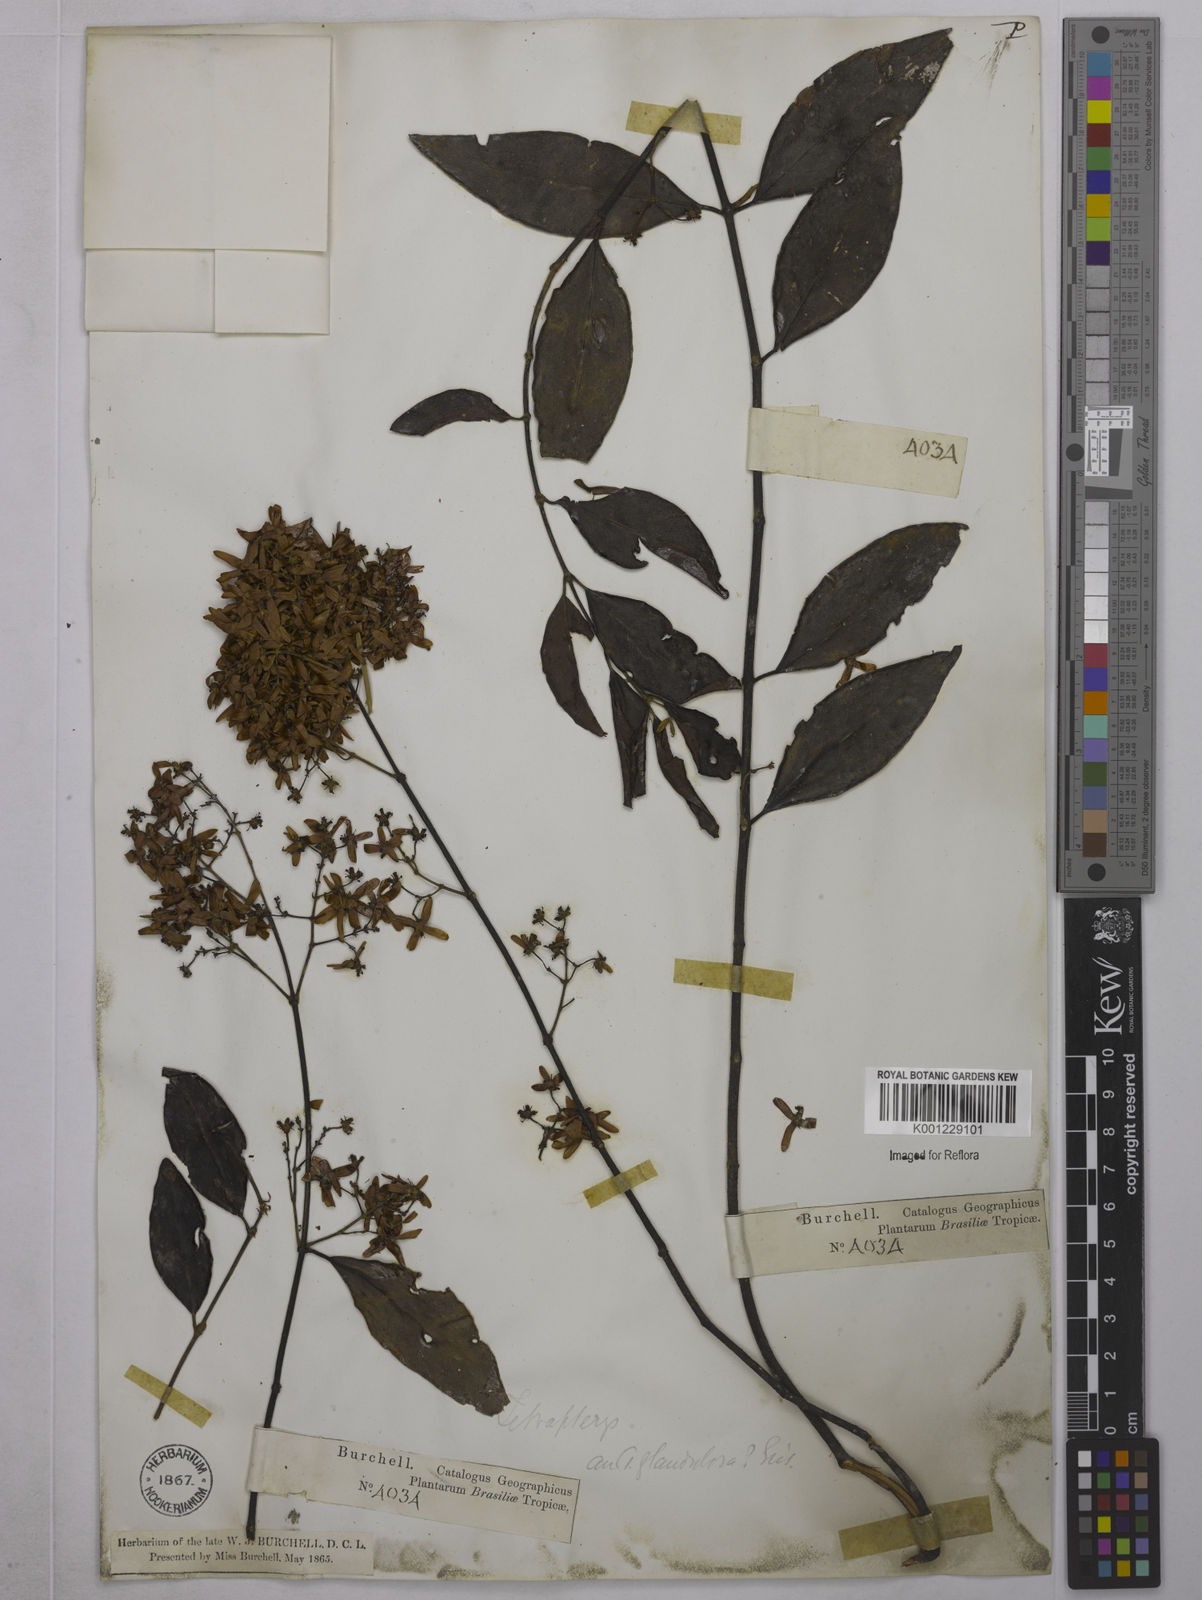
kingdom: Plantae
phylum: Tracheophyta
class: Magnoliopsida
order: Malpighiales
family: Malpighiaceae
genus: Niedenzuella
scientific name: Niedenzuella sericea
